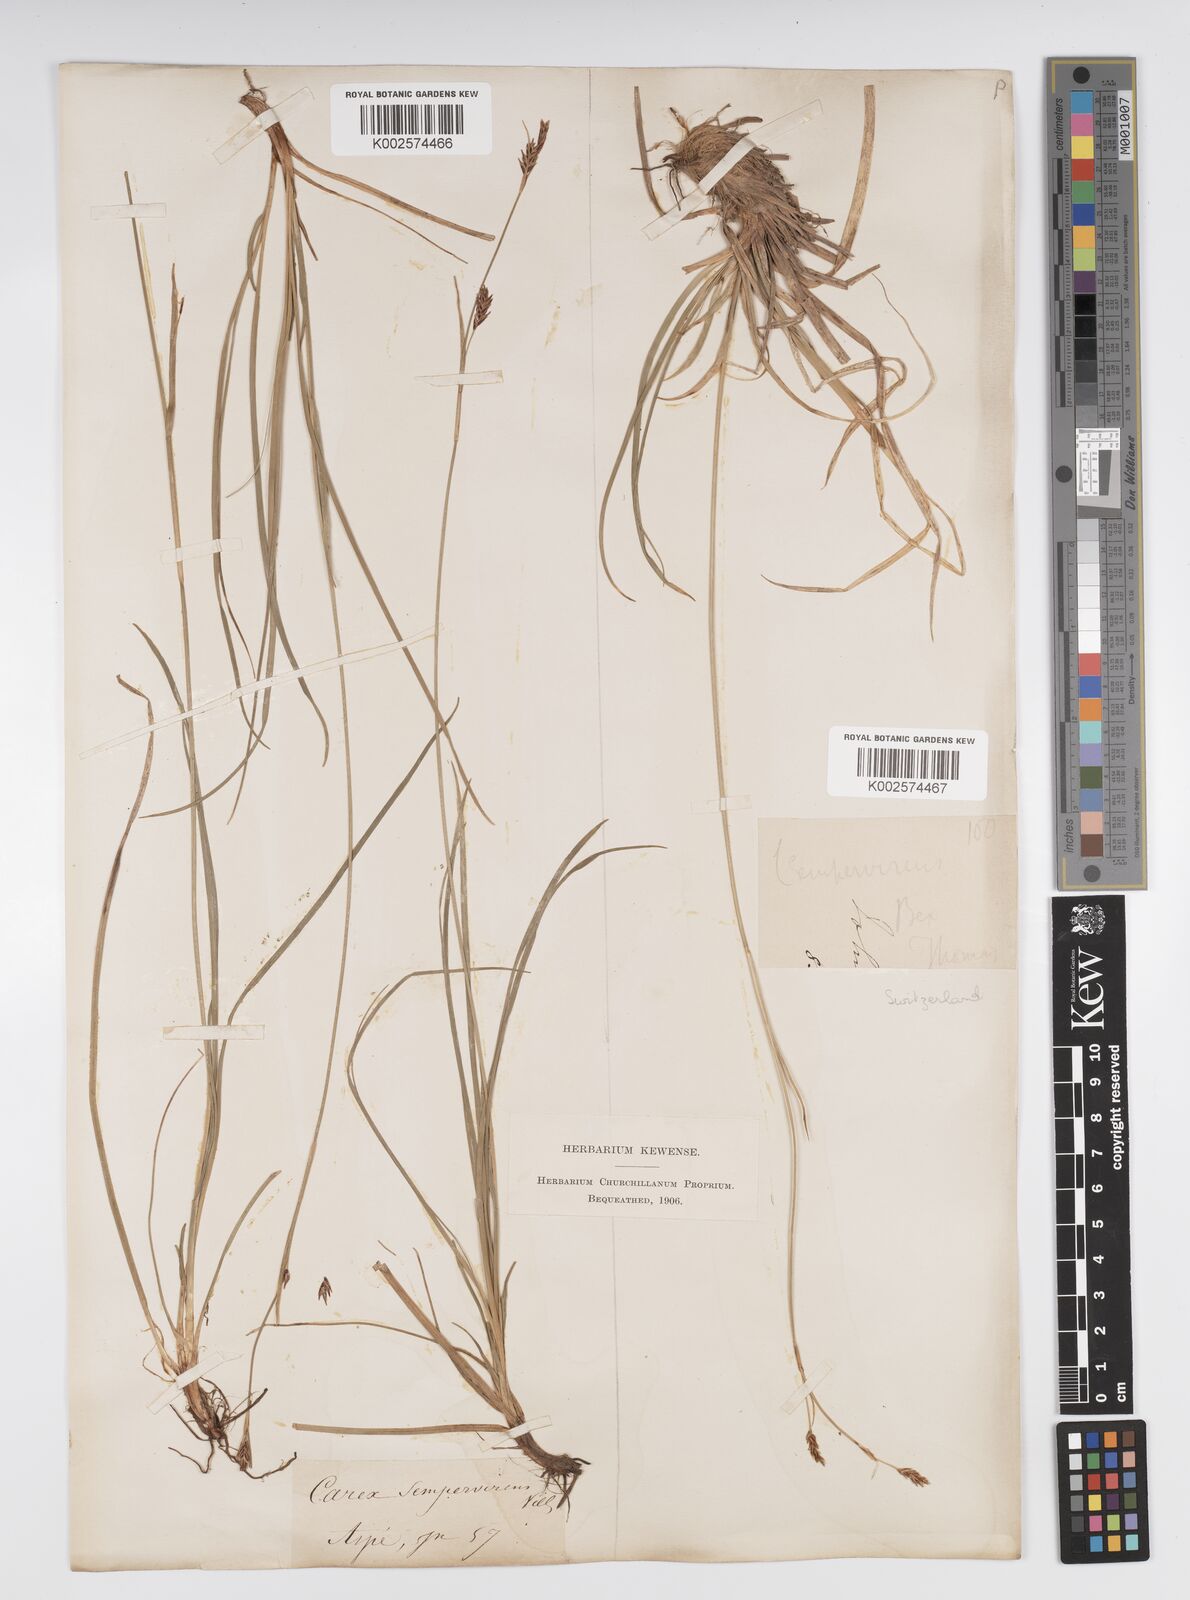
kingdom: Plantae
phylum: Tracheophyta
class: Liliopsida
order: Poales
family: Cyperaceae
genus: Carex
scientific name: Carex sempervirens
